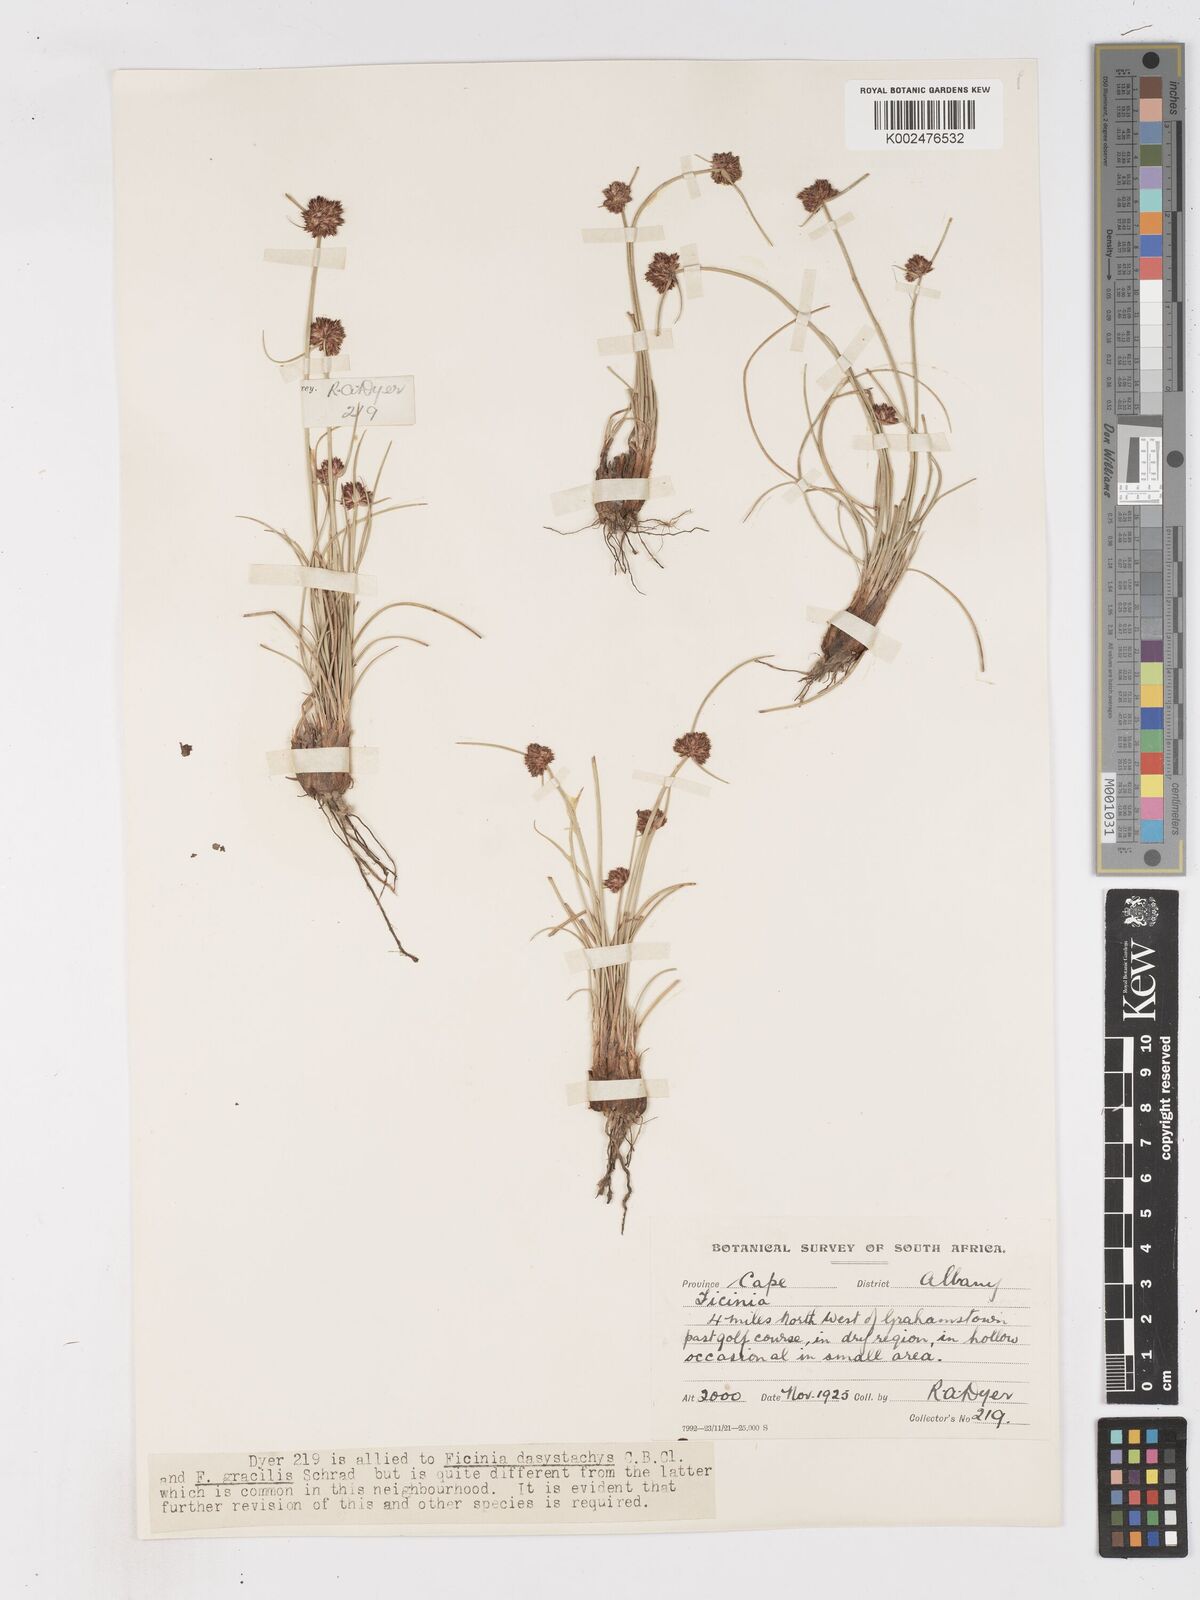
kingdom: Plantae
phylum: Tracheophyta
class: Liliopsida
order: Poales
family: Cyperaceae
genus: Ficinia
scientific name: Ficinia
